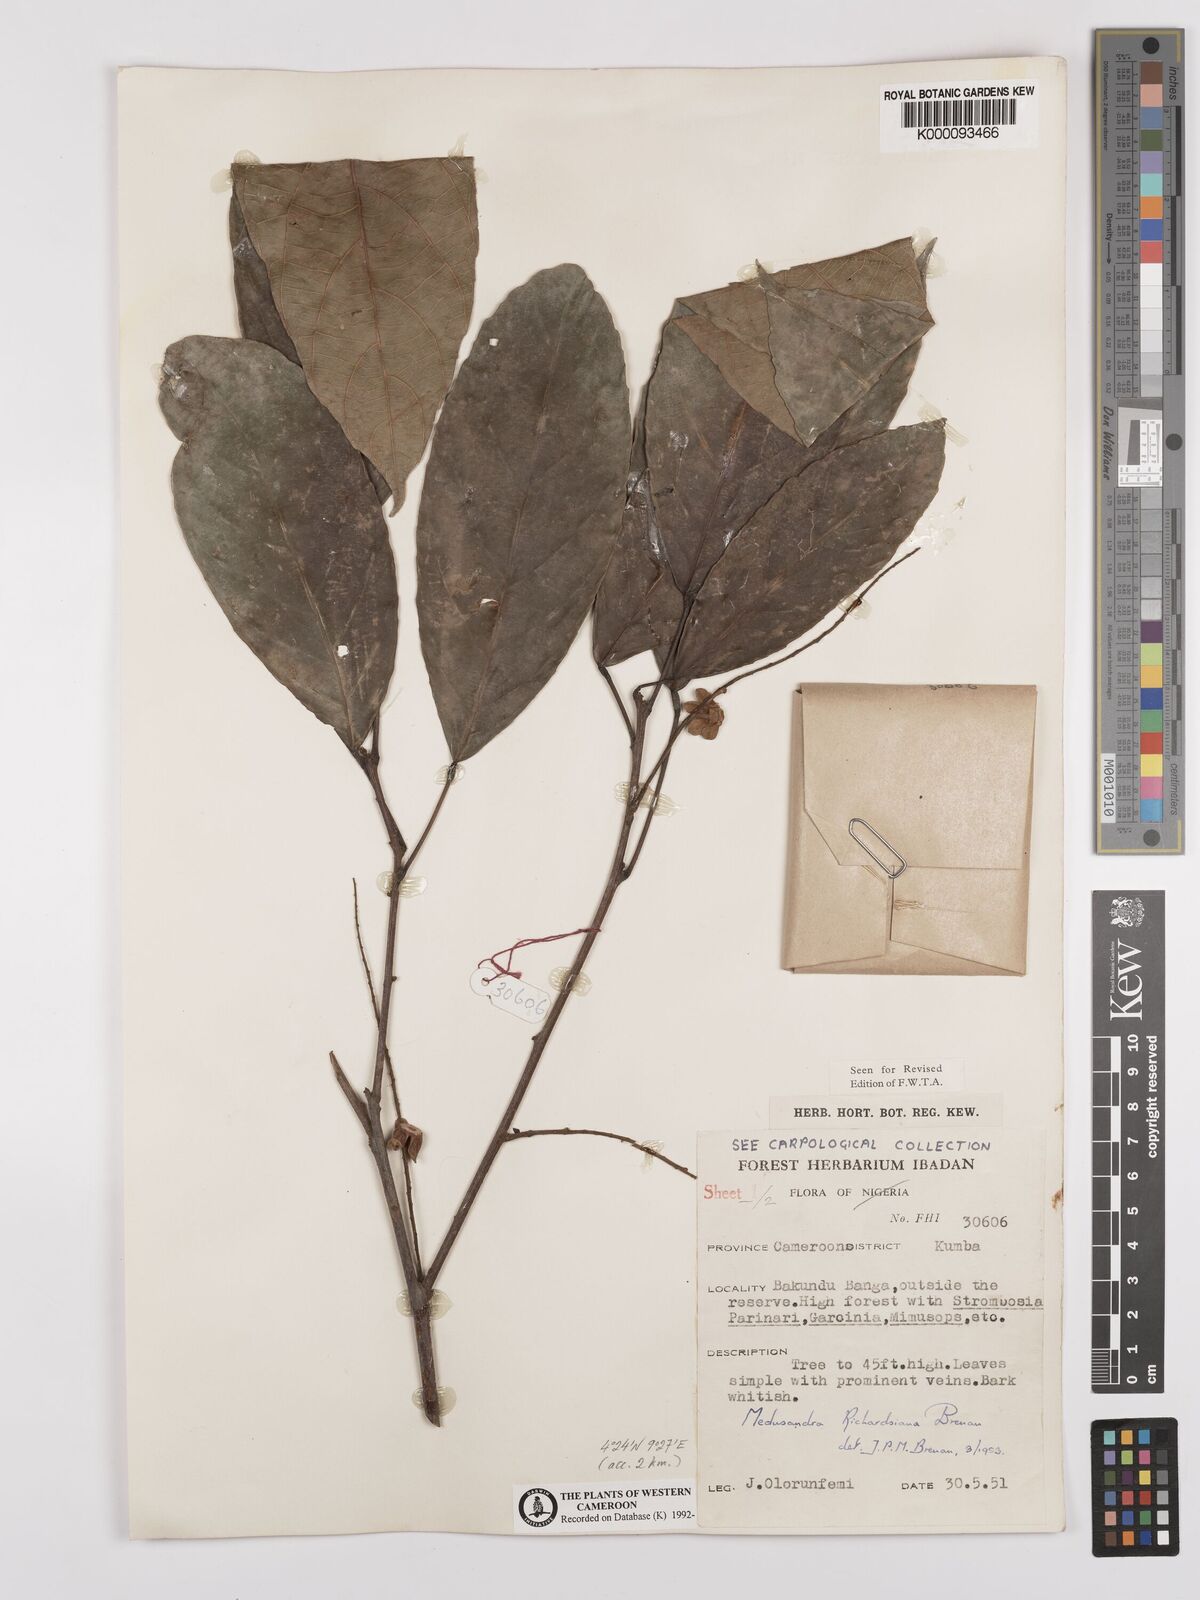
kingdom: Plantae
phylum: Tracheophyta
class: Magnoliopsida
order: Saxifragales
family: Peridiscaceae
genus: Medusandra
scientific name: Medusandra richardsiana
